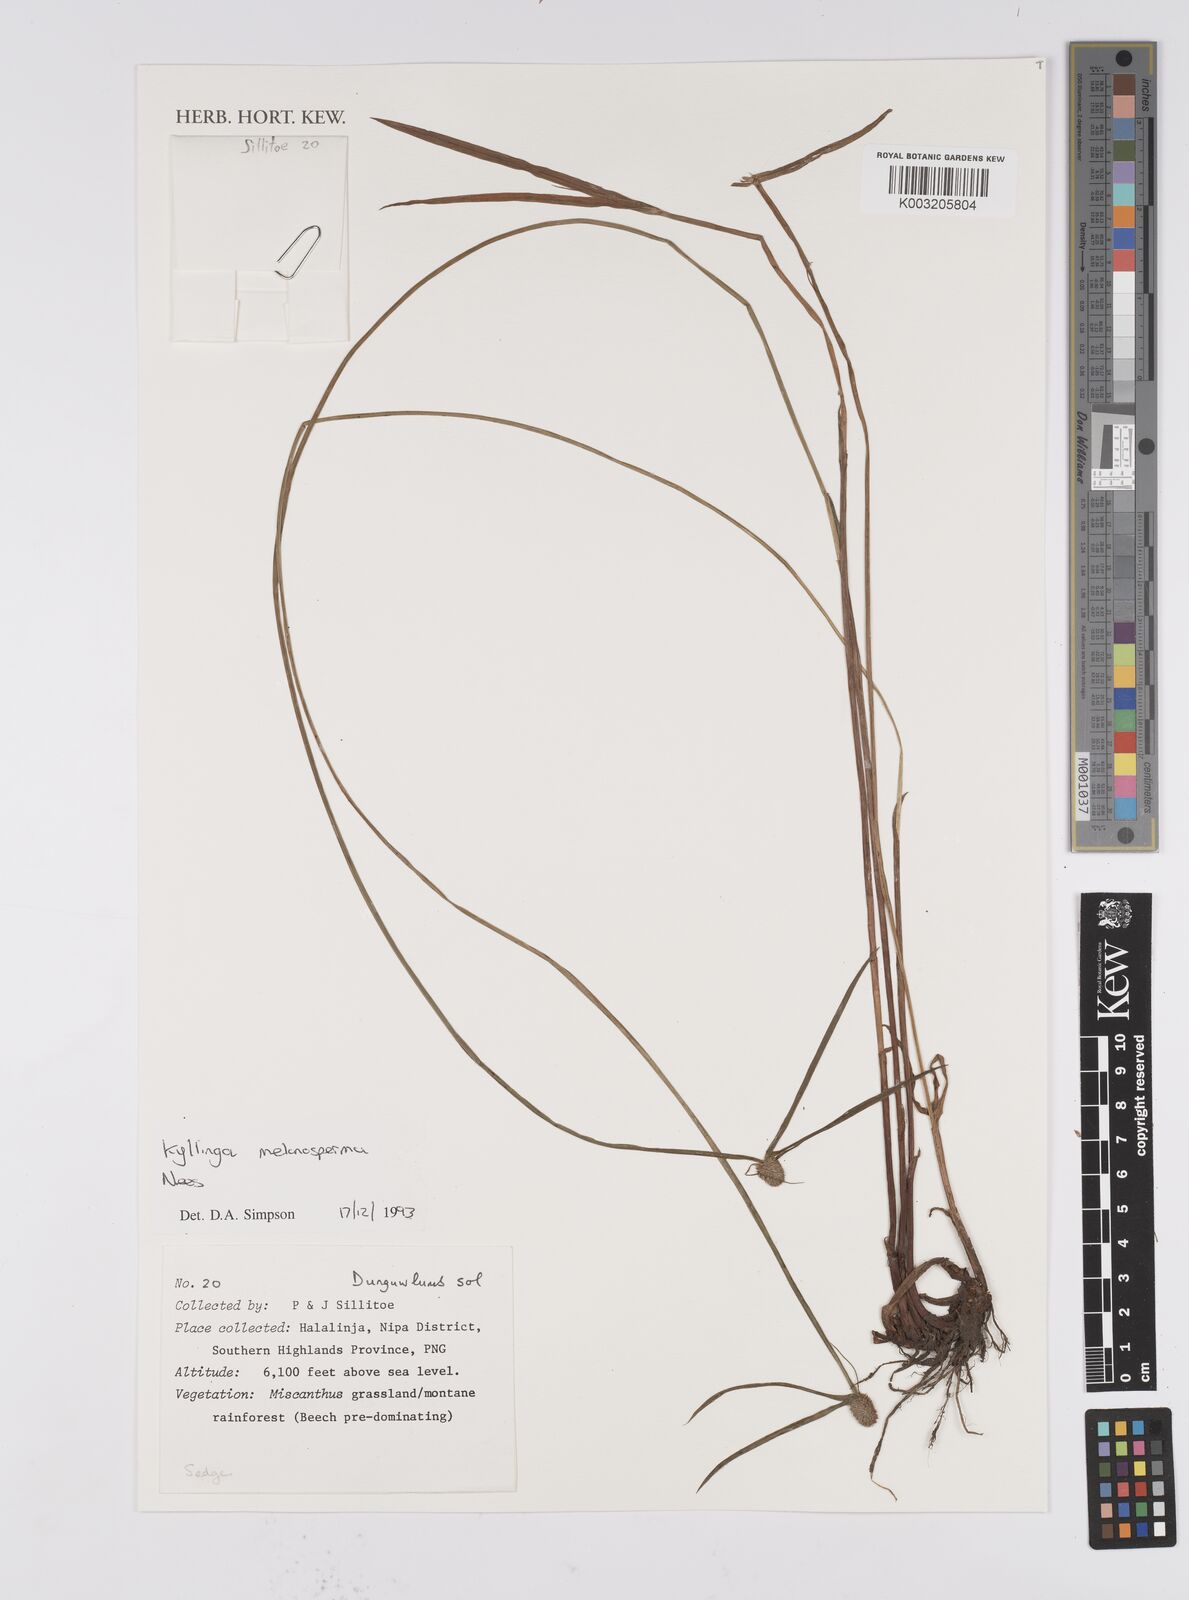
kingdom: Plantae
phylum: Tracheophyta
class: Liliopsida
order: Poales
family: Cyperaceae
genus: Cyperus
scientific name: Cyperus melanospermus
